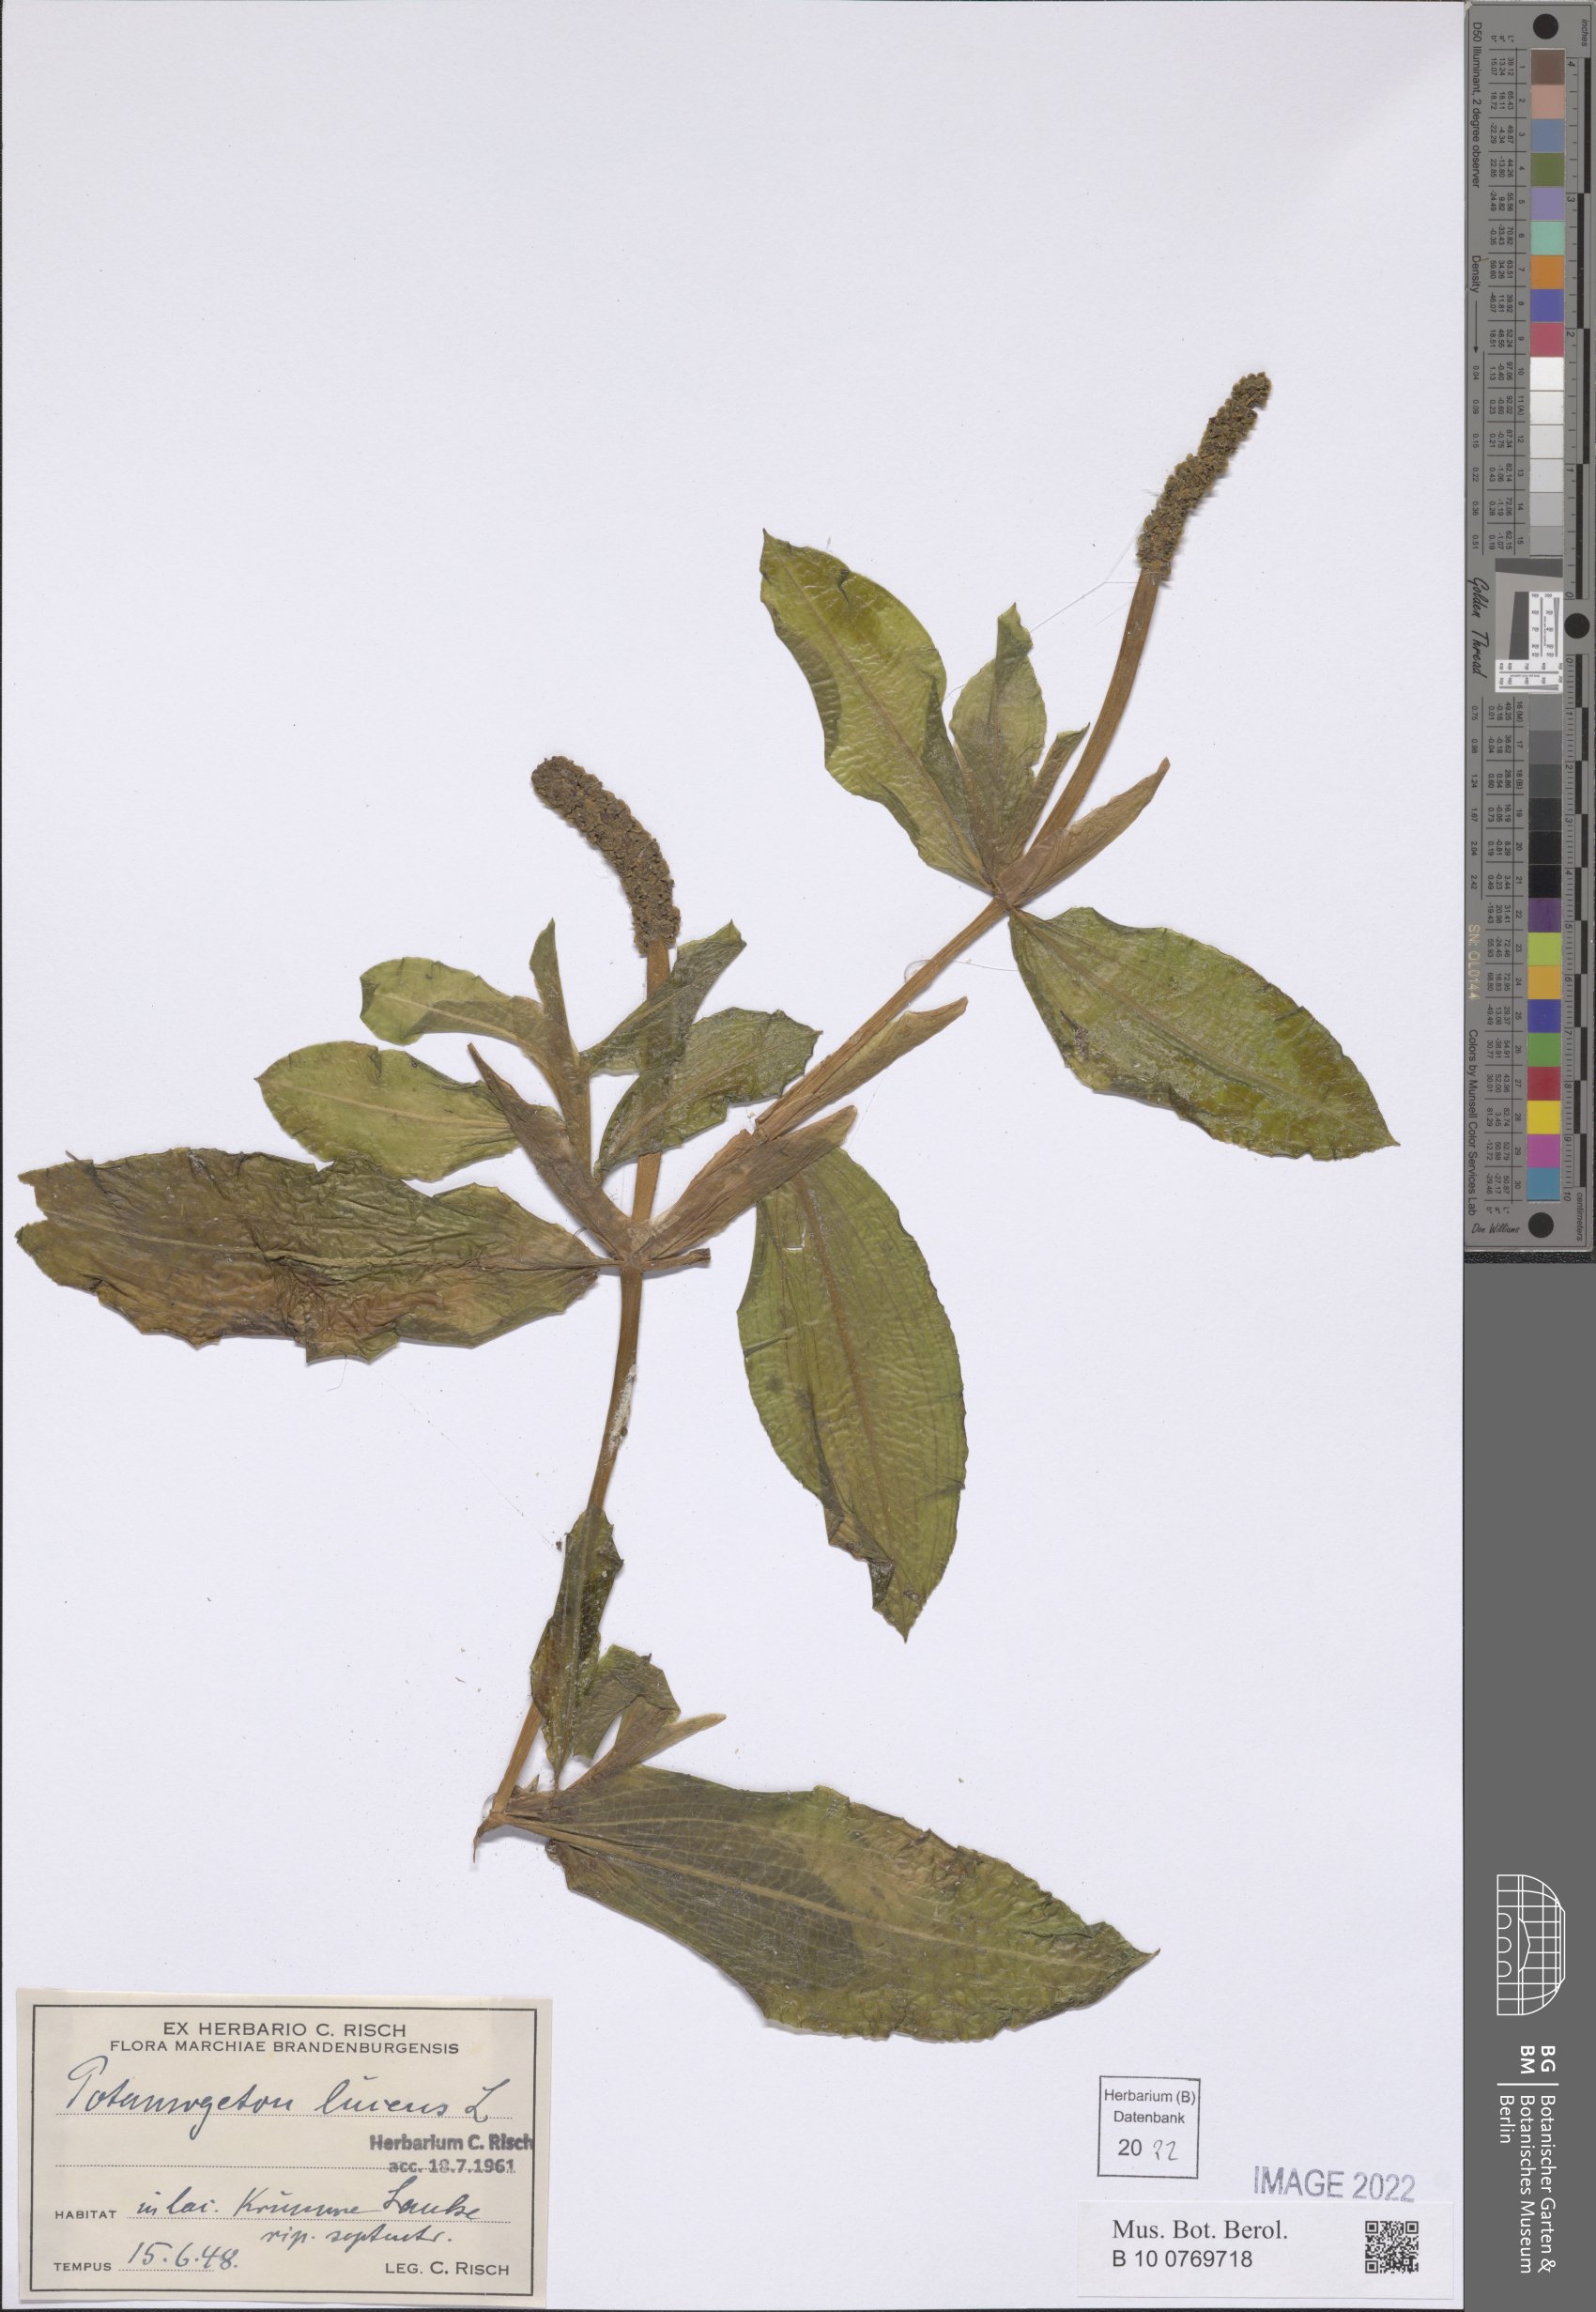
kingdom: Plantae
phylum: Tracheophyta
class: Liliopsida
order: Alismatales
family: Potamogetonaceae
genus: Potamogeton
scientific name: Potamogeton lucens
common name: Shining pondweed
